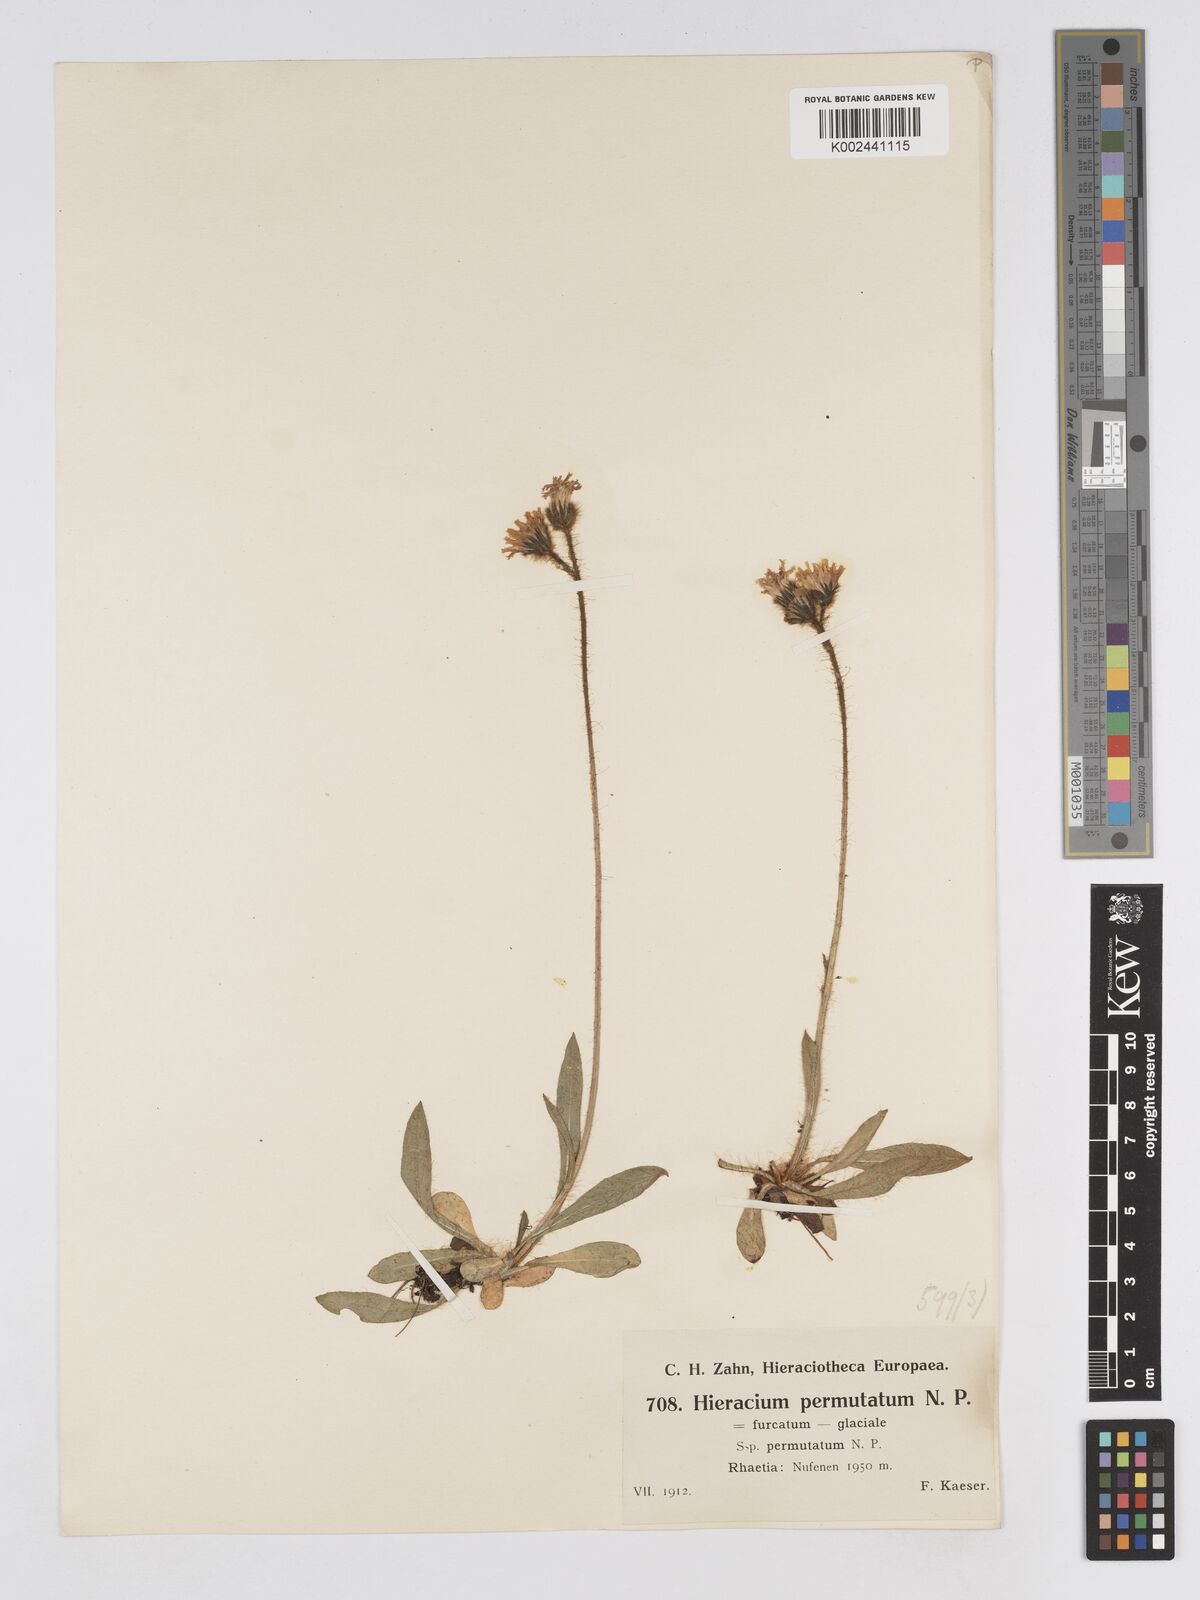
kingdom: Plantae
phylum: Tracheophyta
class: Magnoliopsida
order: Asterales
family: Asteraceae
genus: Pilosella
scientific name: Pilosella permutata
